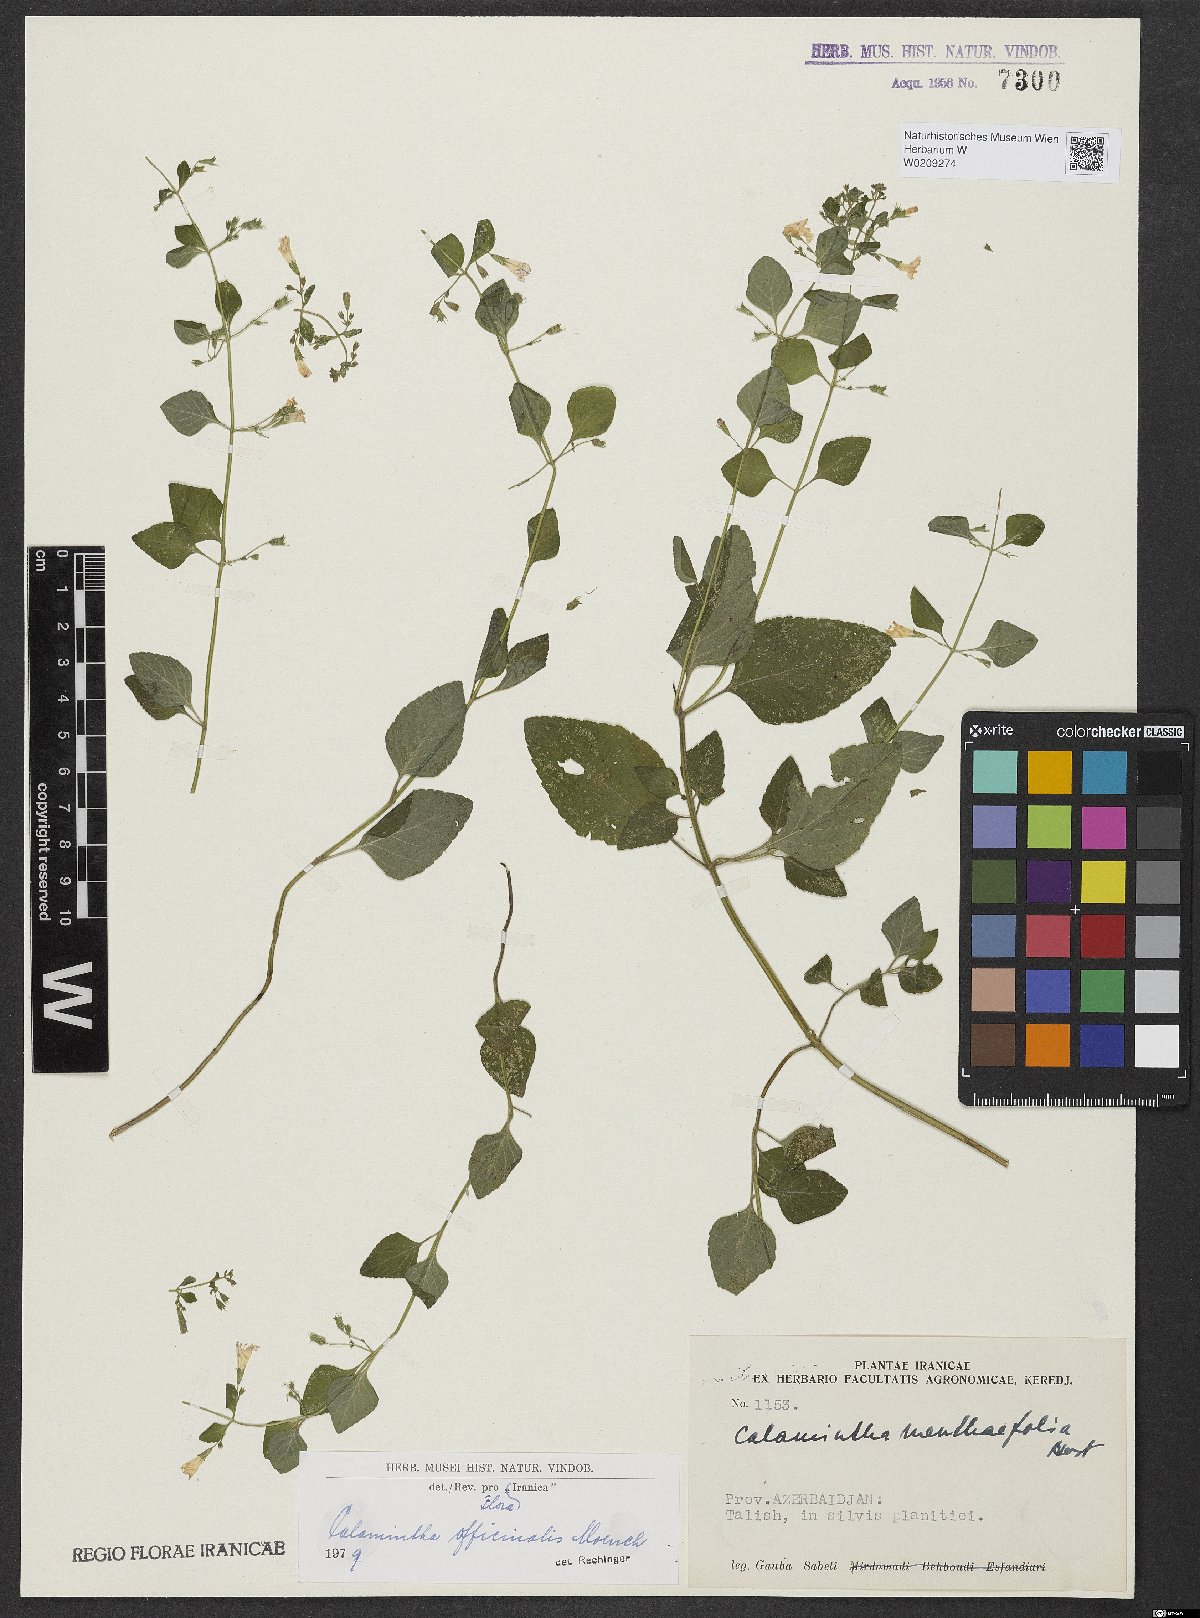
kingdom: Plantae
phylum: Tracheophyta
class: Magnoliopsida
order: Lamiales
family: Lamiaceae
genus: Clinopodium
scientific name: Clinopodium nepeta
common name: Lesser calamint
